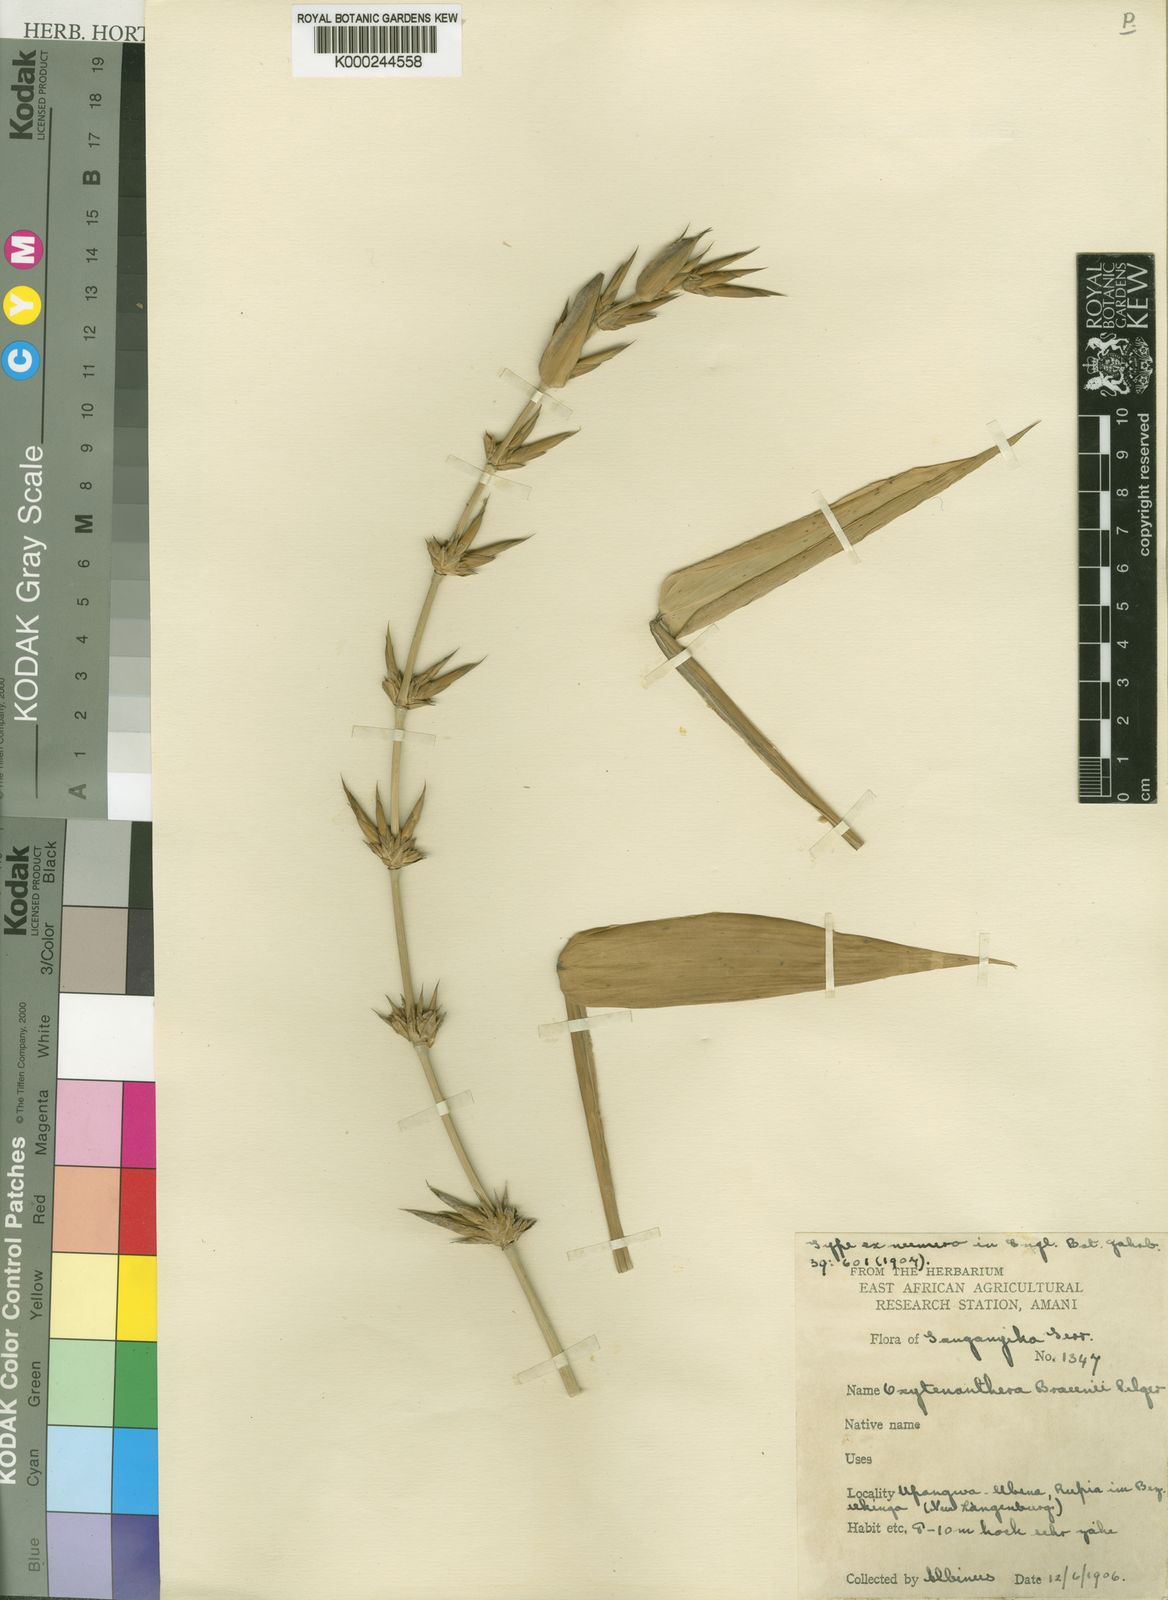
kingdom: Plantae
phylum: Tracheophyta
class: Liliopsida
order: Poales
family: Poaceae
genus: Oxytenanthera
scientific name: Oxytenanthera abyssinica
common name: Wine bamboo
